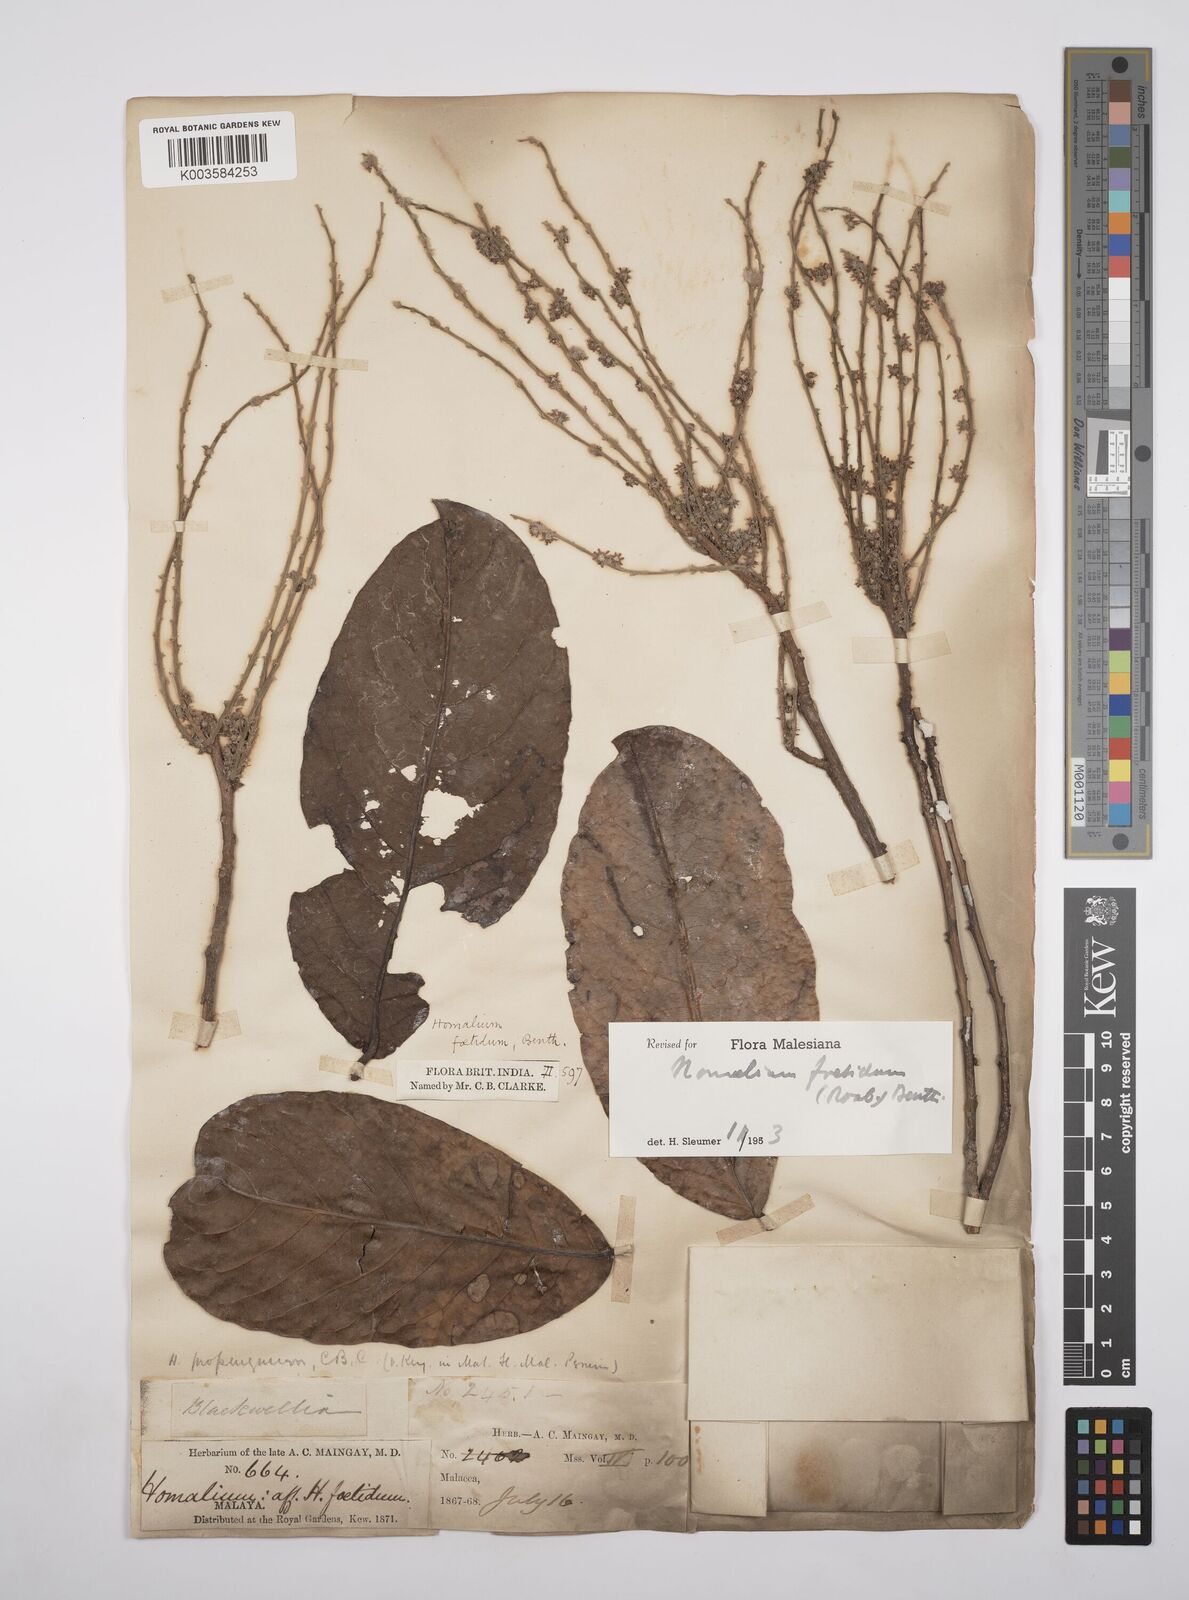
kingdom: Plantae
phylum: Tracheophyta
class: Magnoliopsida
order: Malpighiales
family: Salicaceae
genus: Homalium
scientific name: Homalium foetidum
